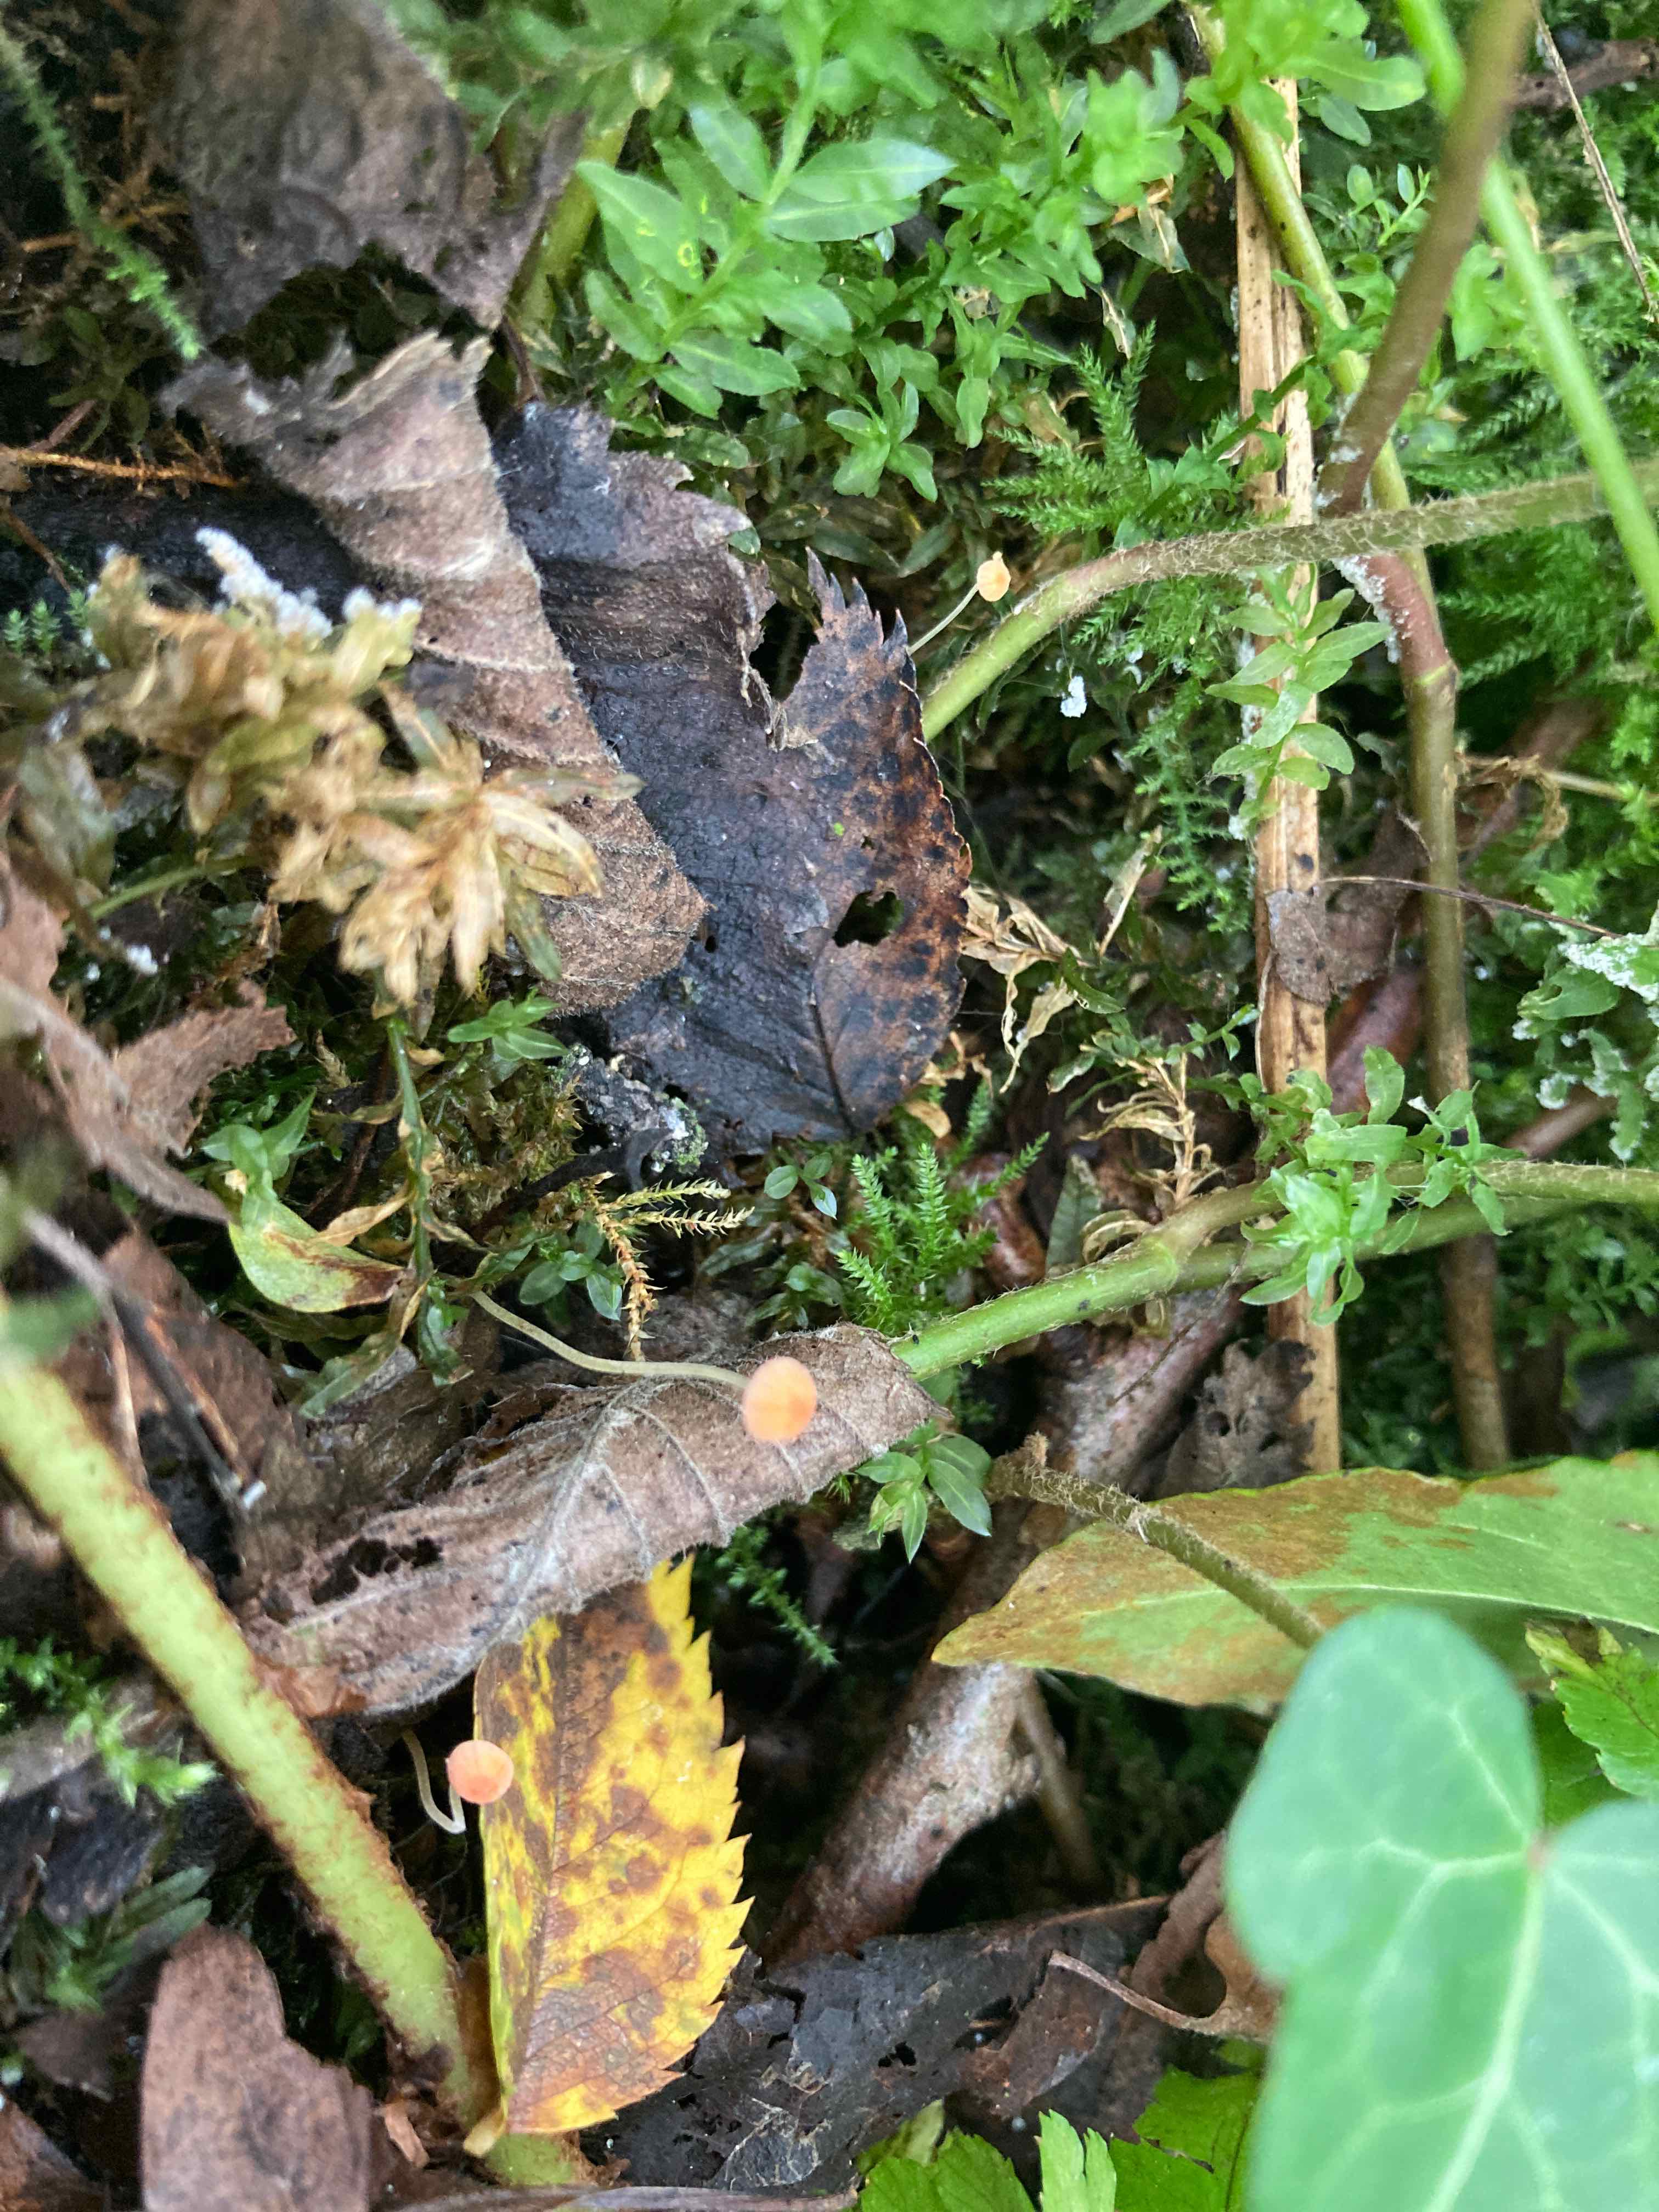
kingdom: Fungi
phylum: Basidiomycota
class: Agaricomycetes
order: Agaricales
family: Mycenaceae
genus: Mycena
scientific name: Mycena acicula
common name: orange huesvamp
